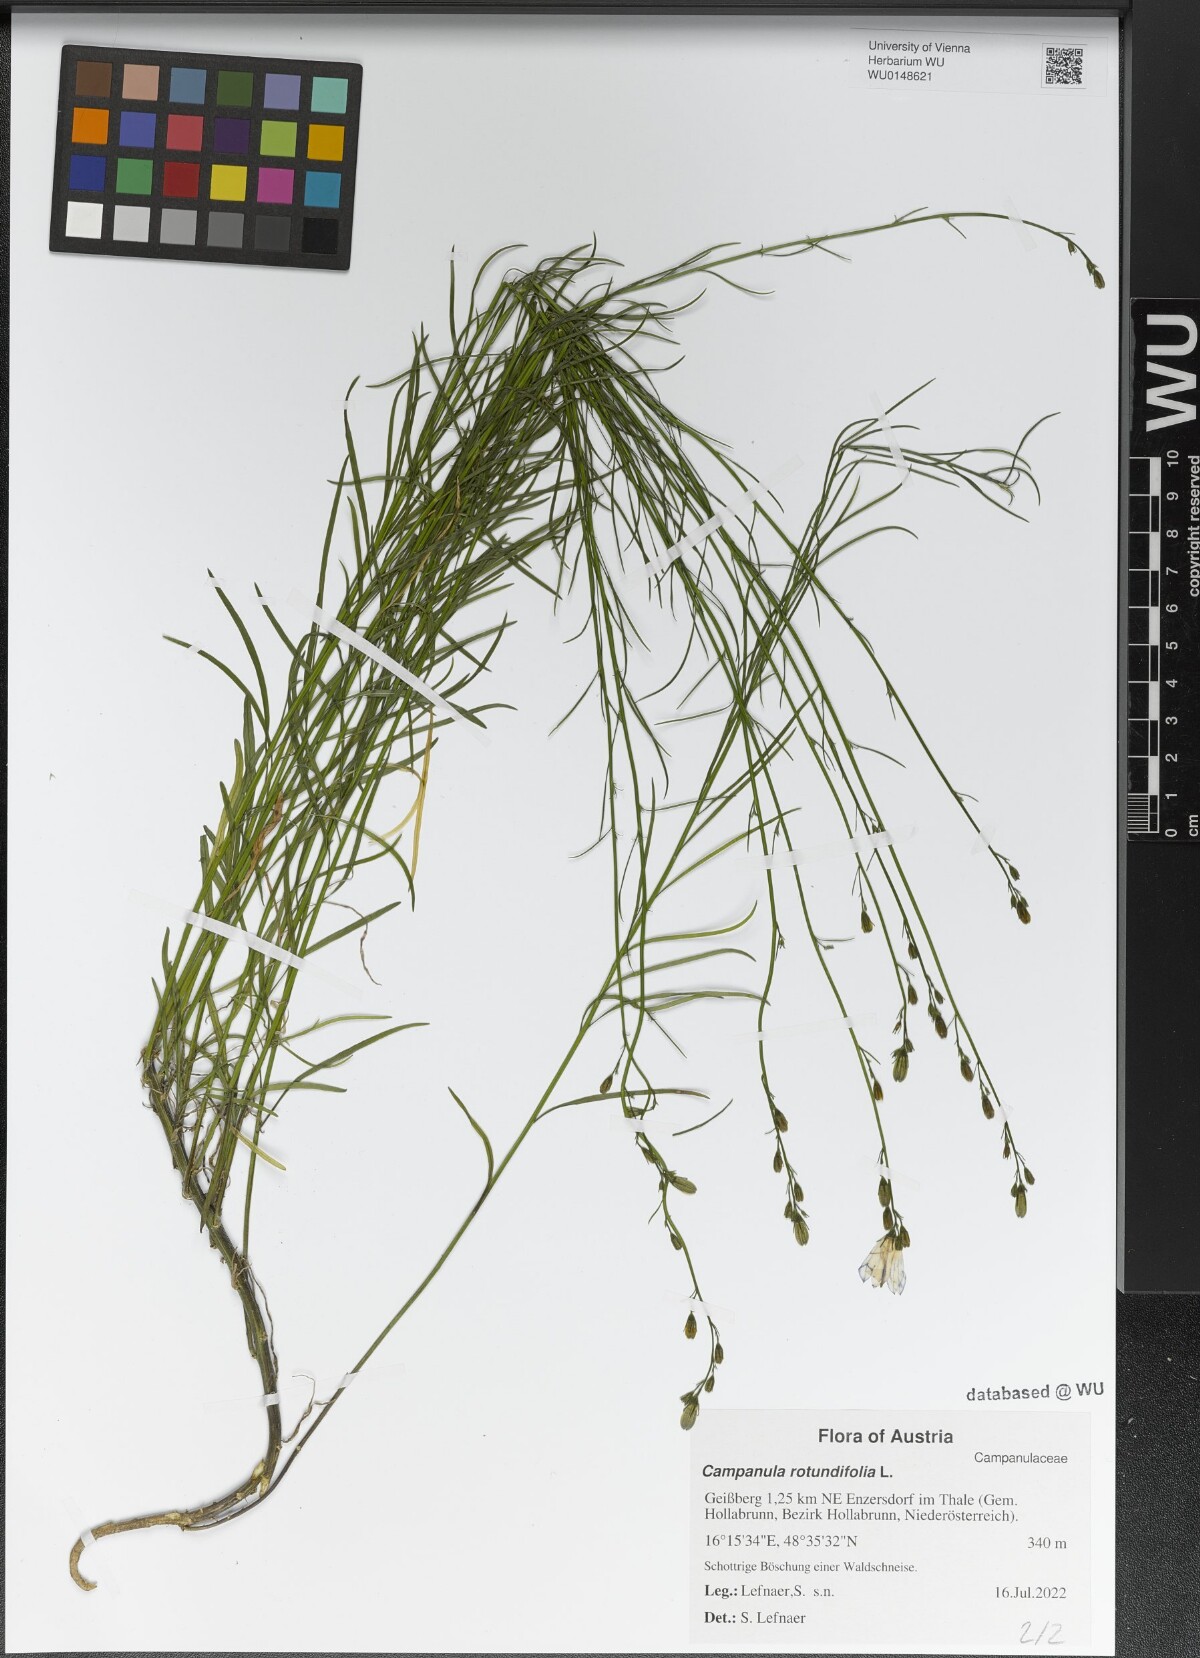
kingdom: Plantae
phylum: Tracheophyta
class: Magnoliopsida
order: Asterales
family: Campanulaceae
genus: Campanula
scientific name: Campanula rotundifolia
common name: Harebell
